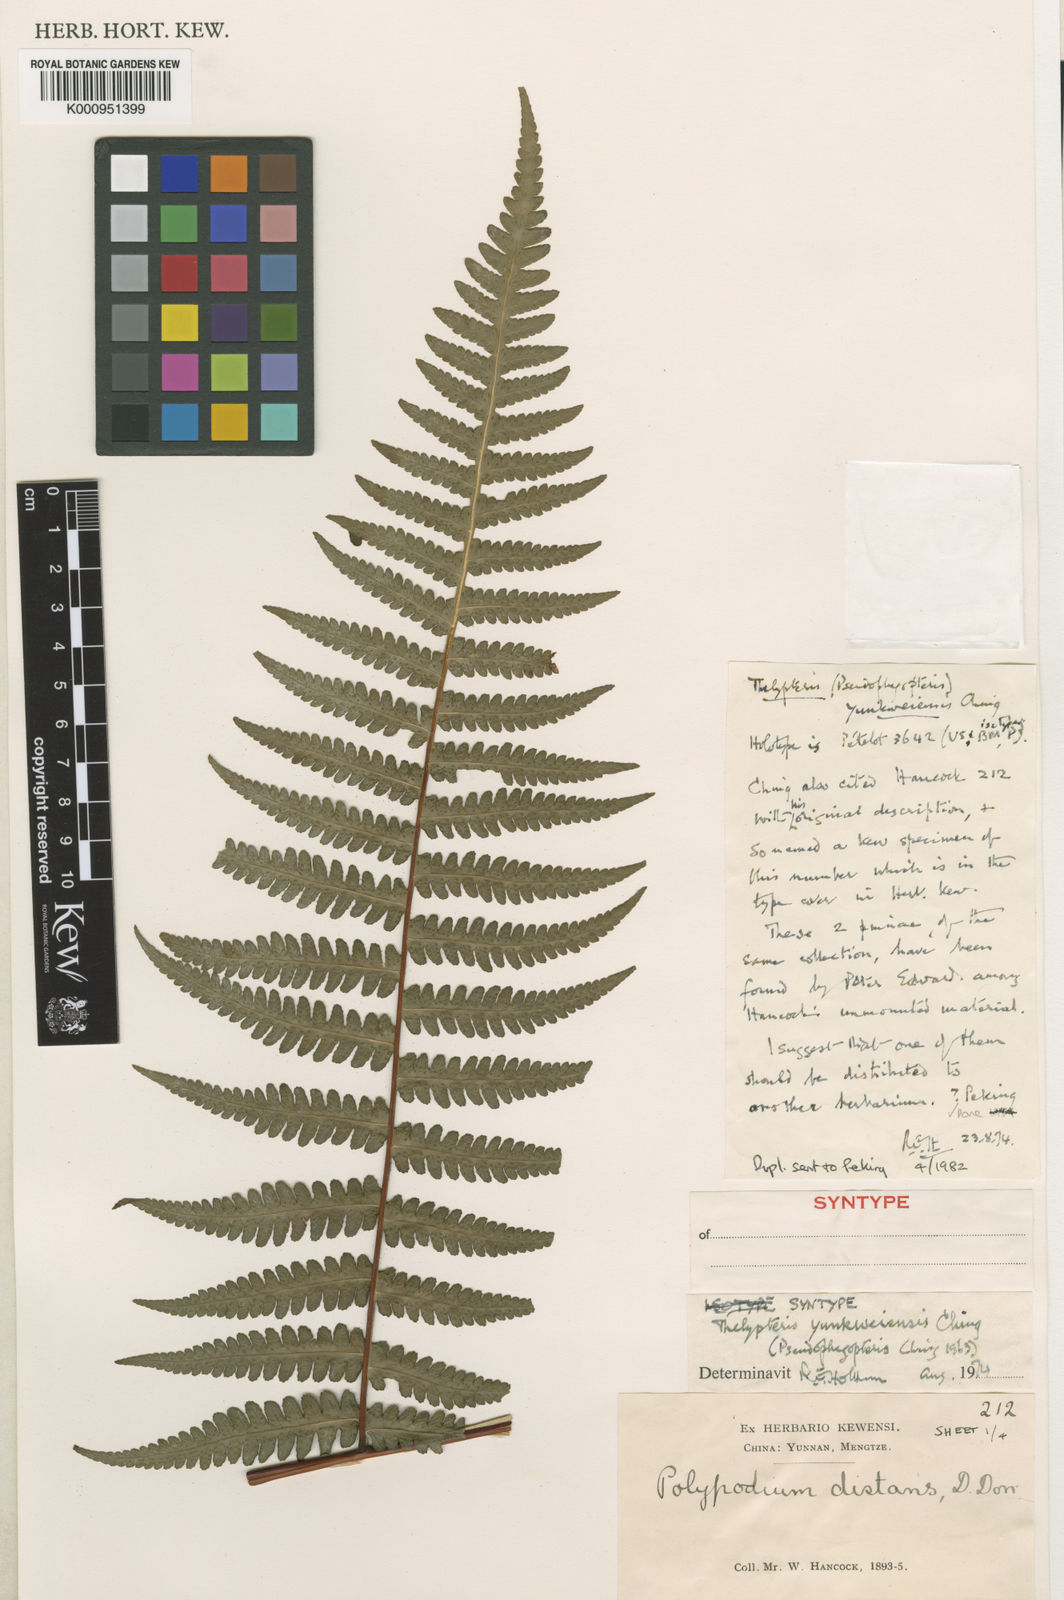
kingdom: Plantae
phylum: Tracheophyta
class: Polypodiopsida
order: Polypodiales
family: Thelypteridaceae
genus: Pseudophegopteris
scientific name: Pseudophegopteris pyrrhorachis
